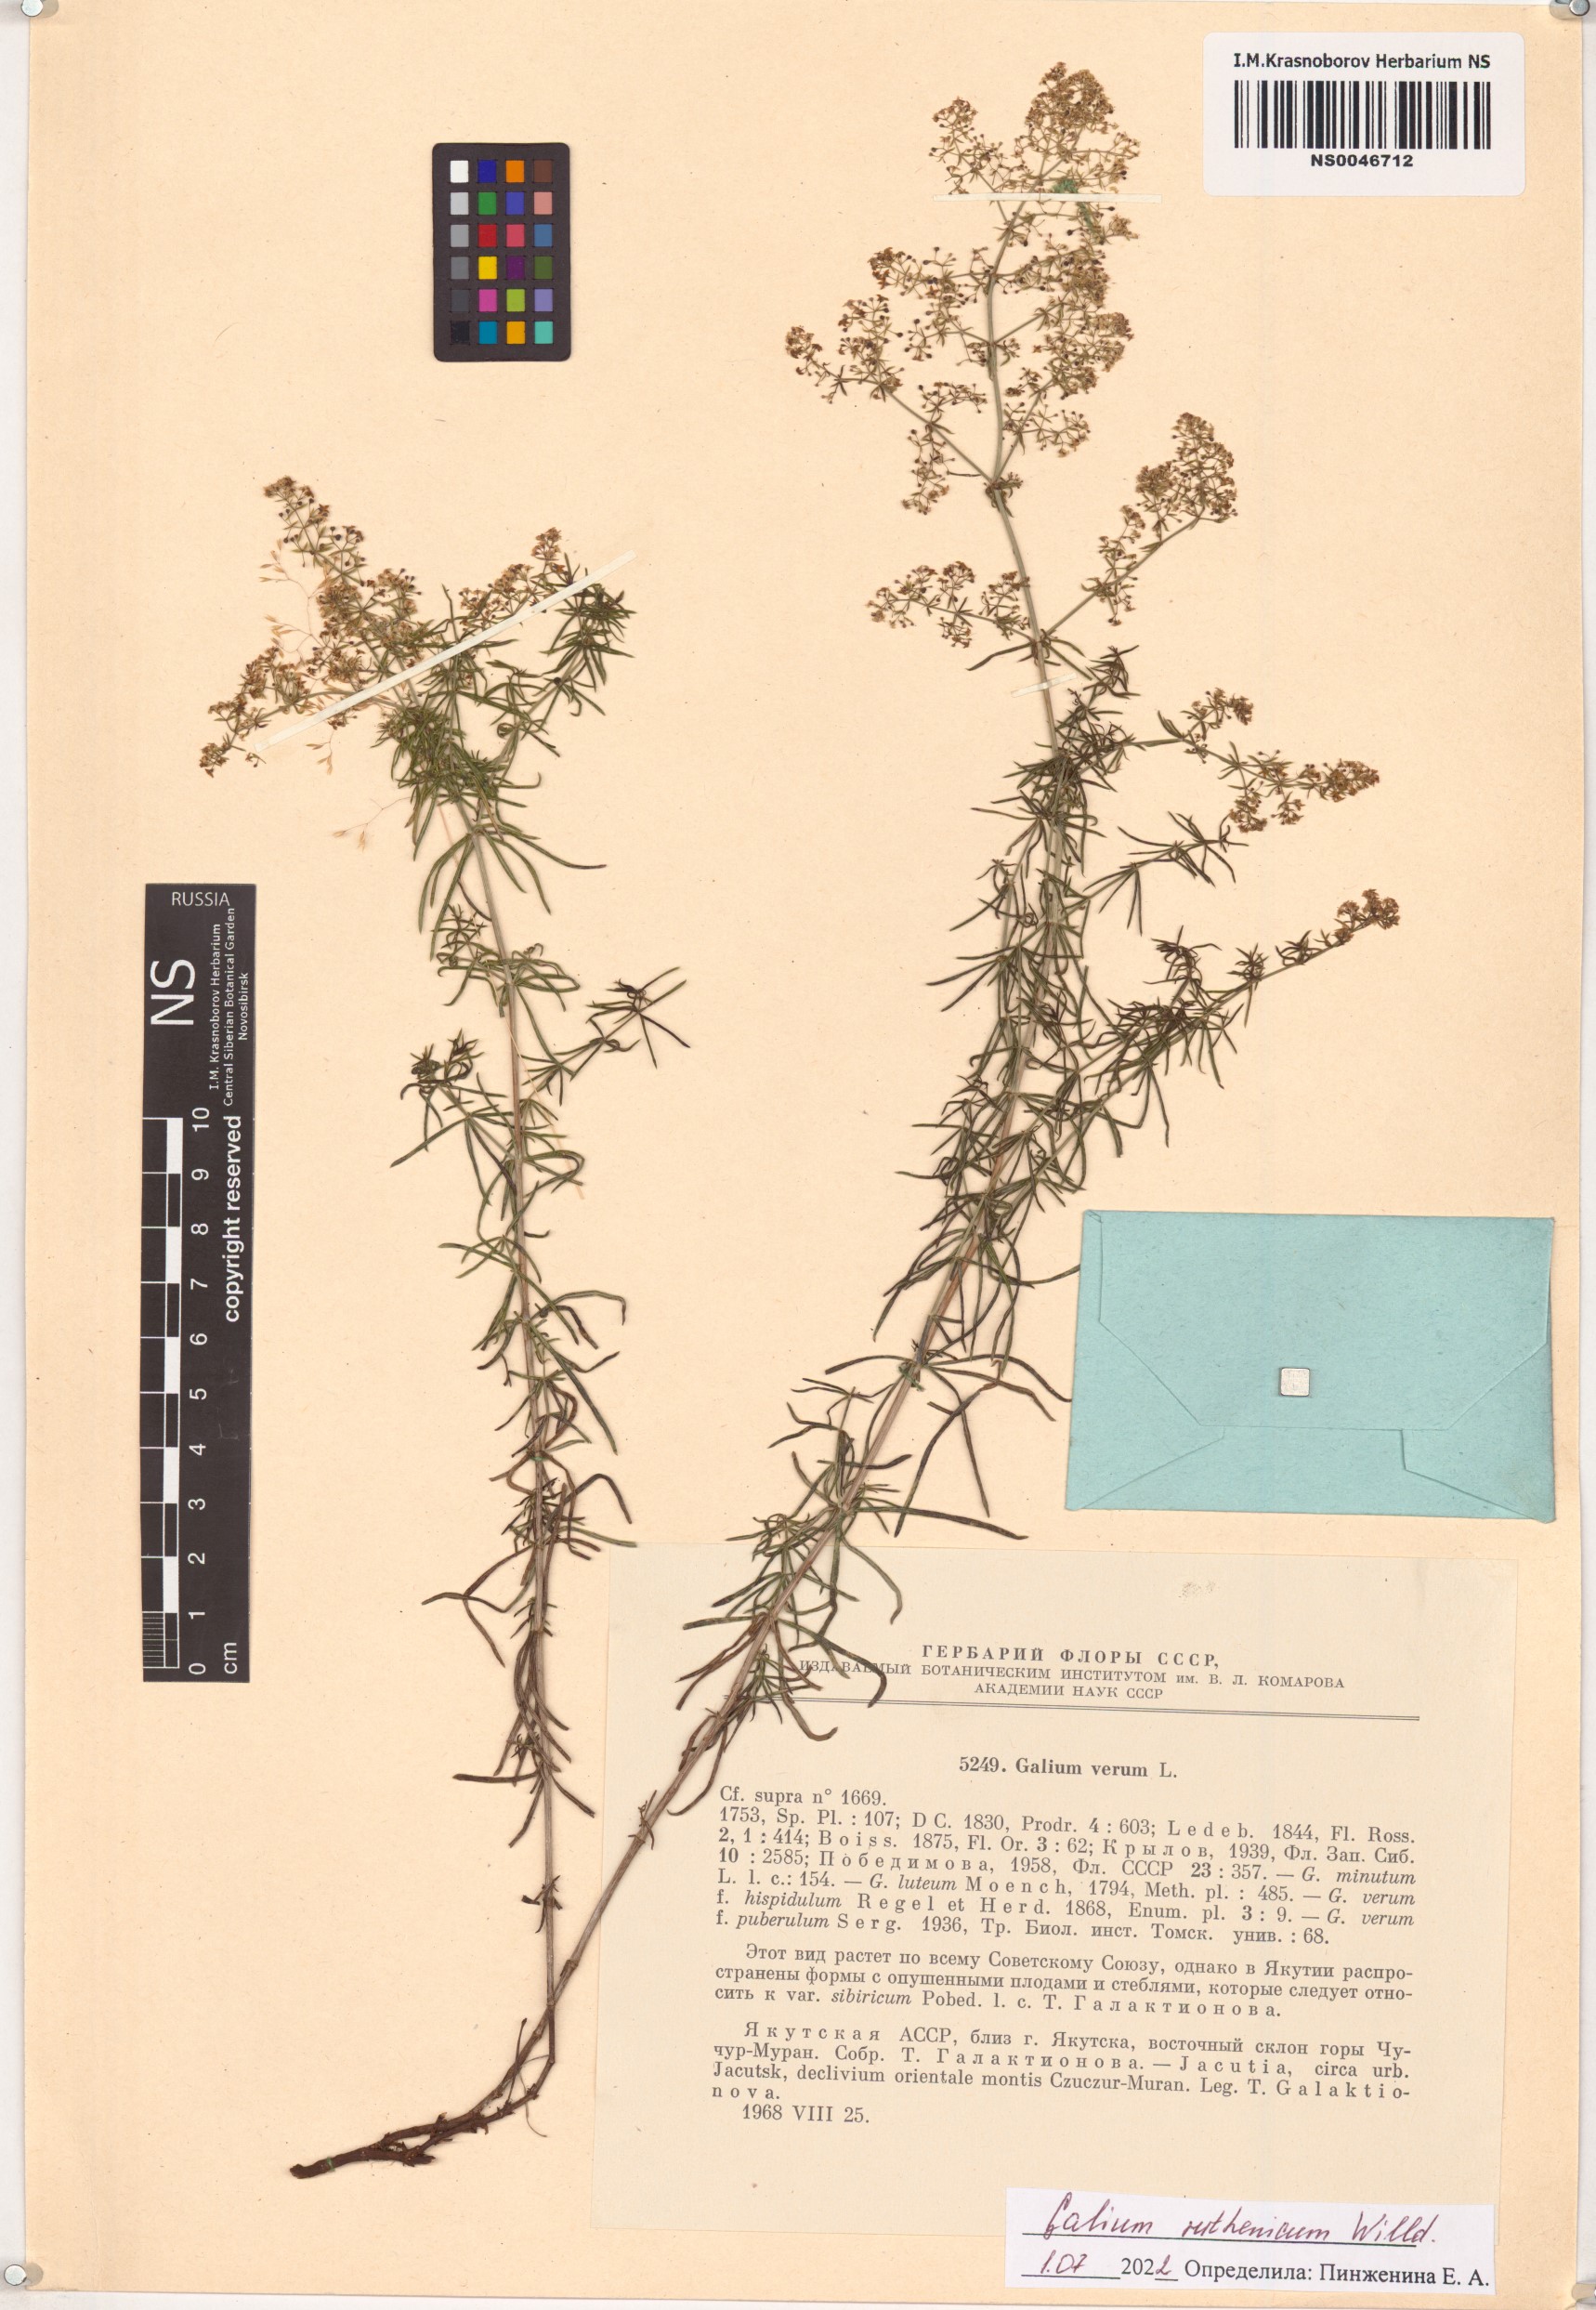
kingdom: Plantae
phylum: Tracheophyta
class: Magnoliopsida
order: Gentianales
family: Rubiaceae
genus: Galium
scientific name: Galium verum
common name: Lady's bedstraw
